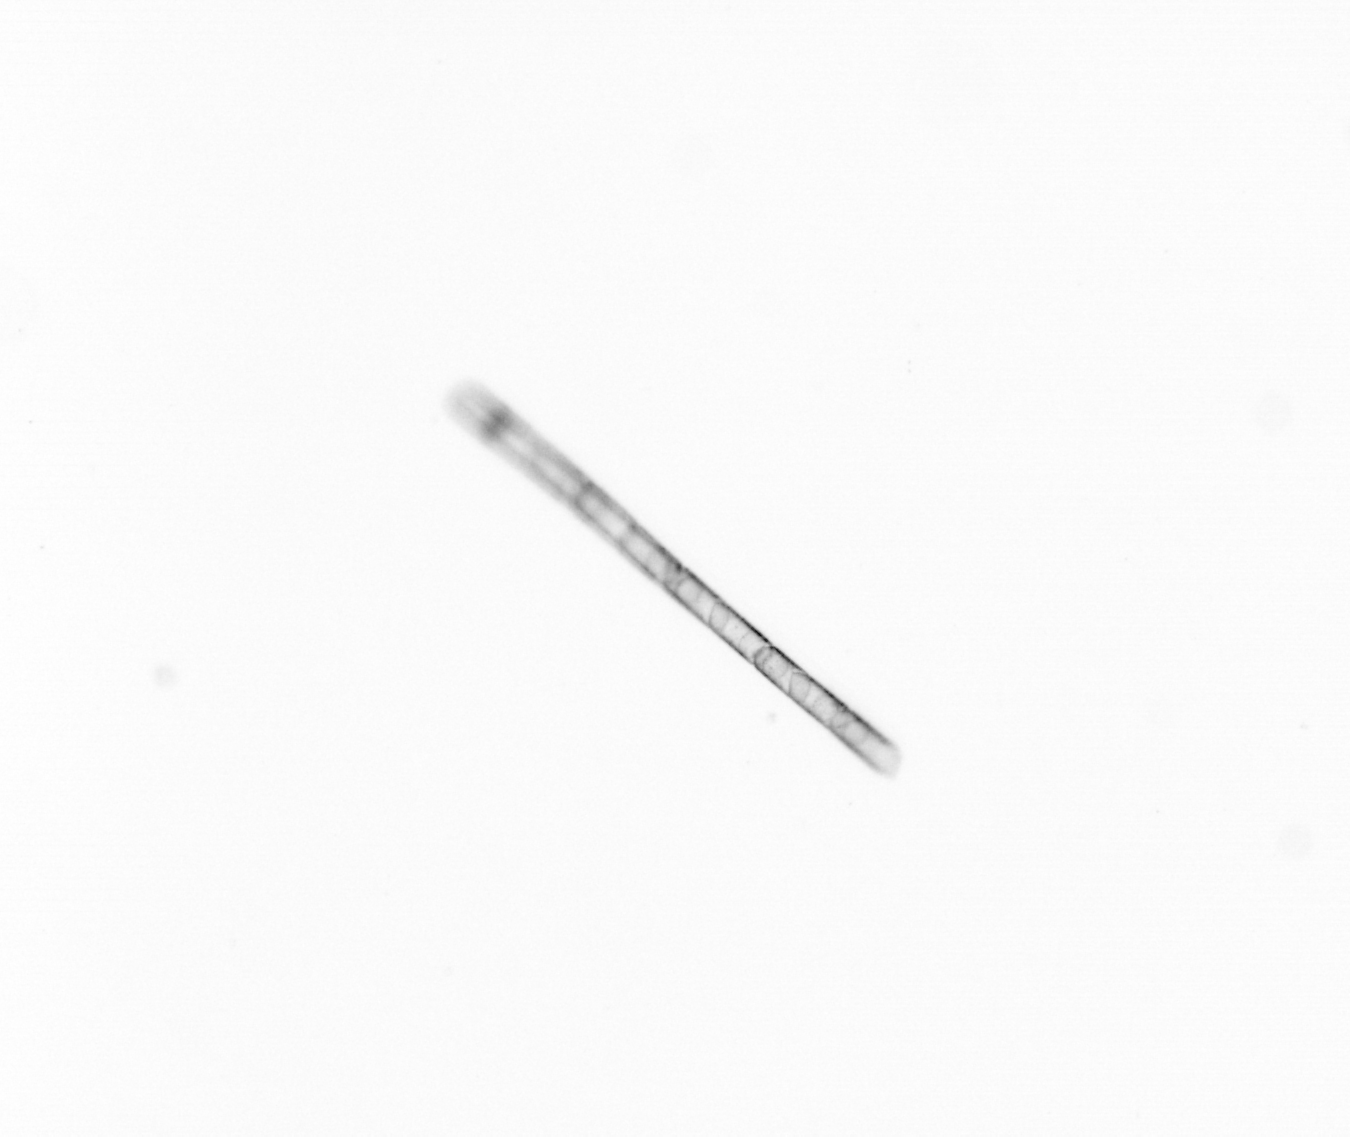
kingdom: Chromista
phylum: Ochrophyta
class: Bacillariophyceae
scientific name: Bacillariophyceae
